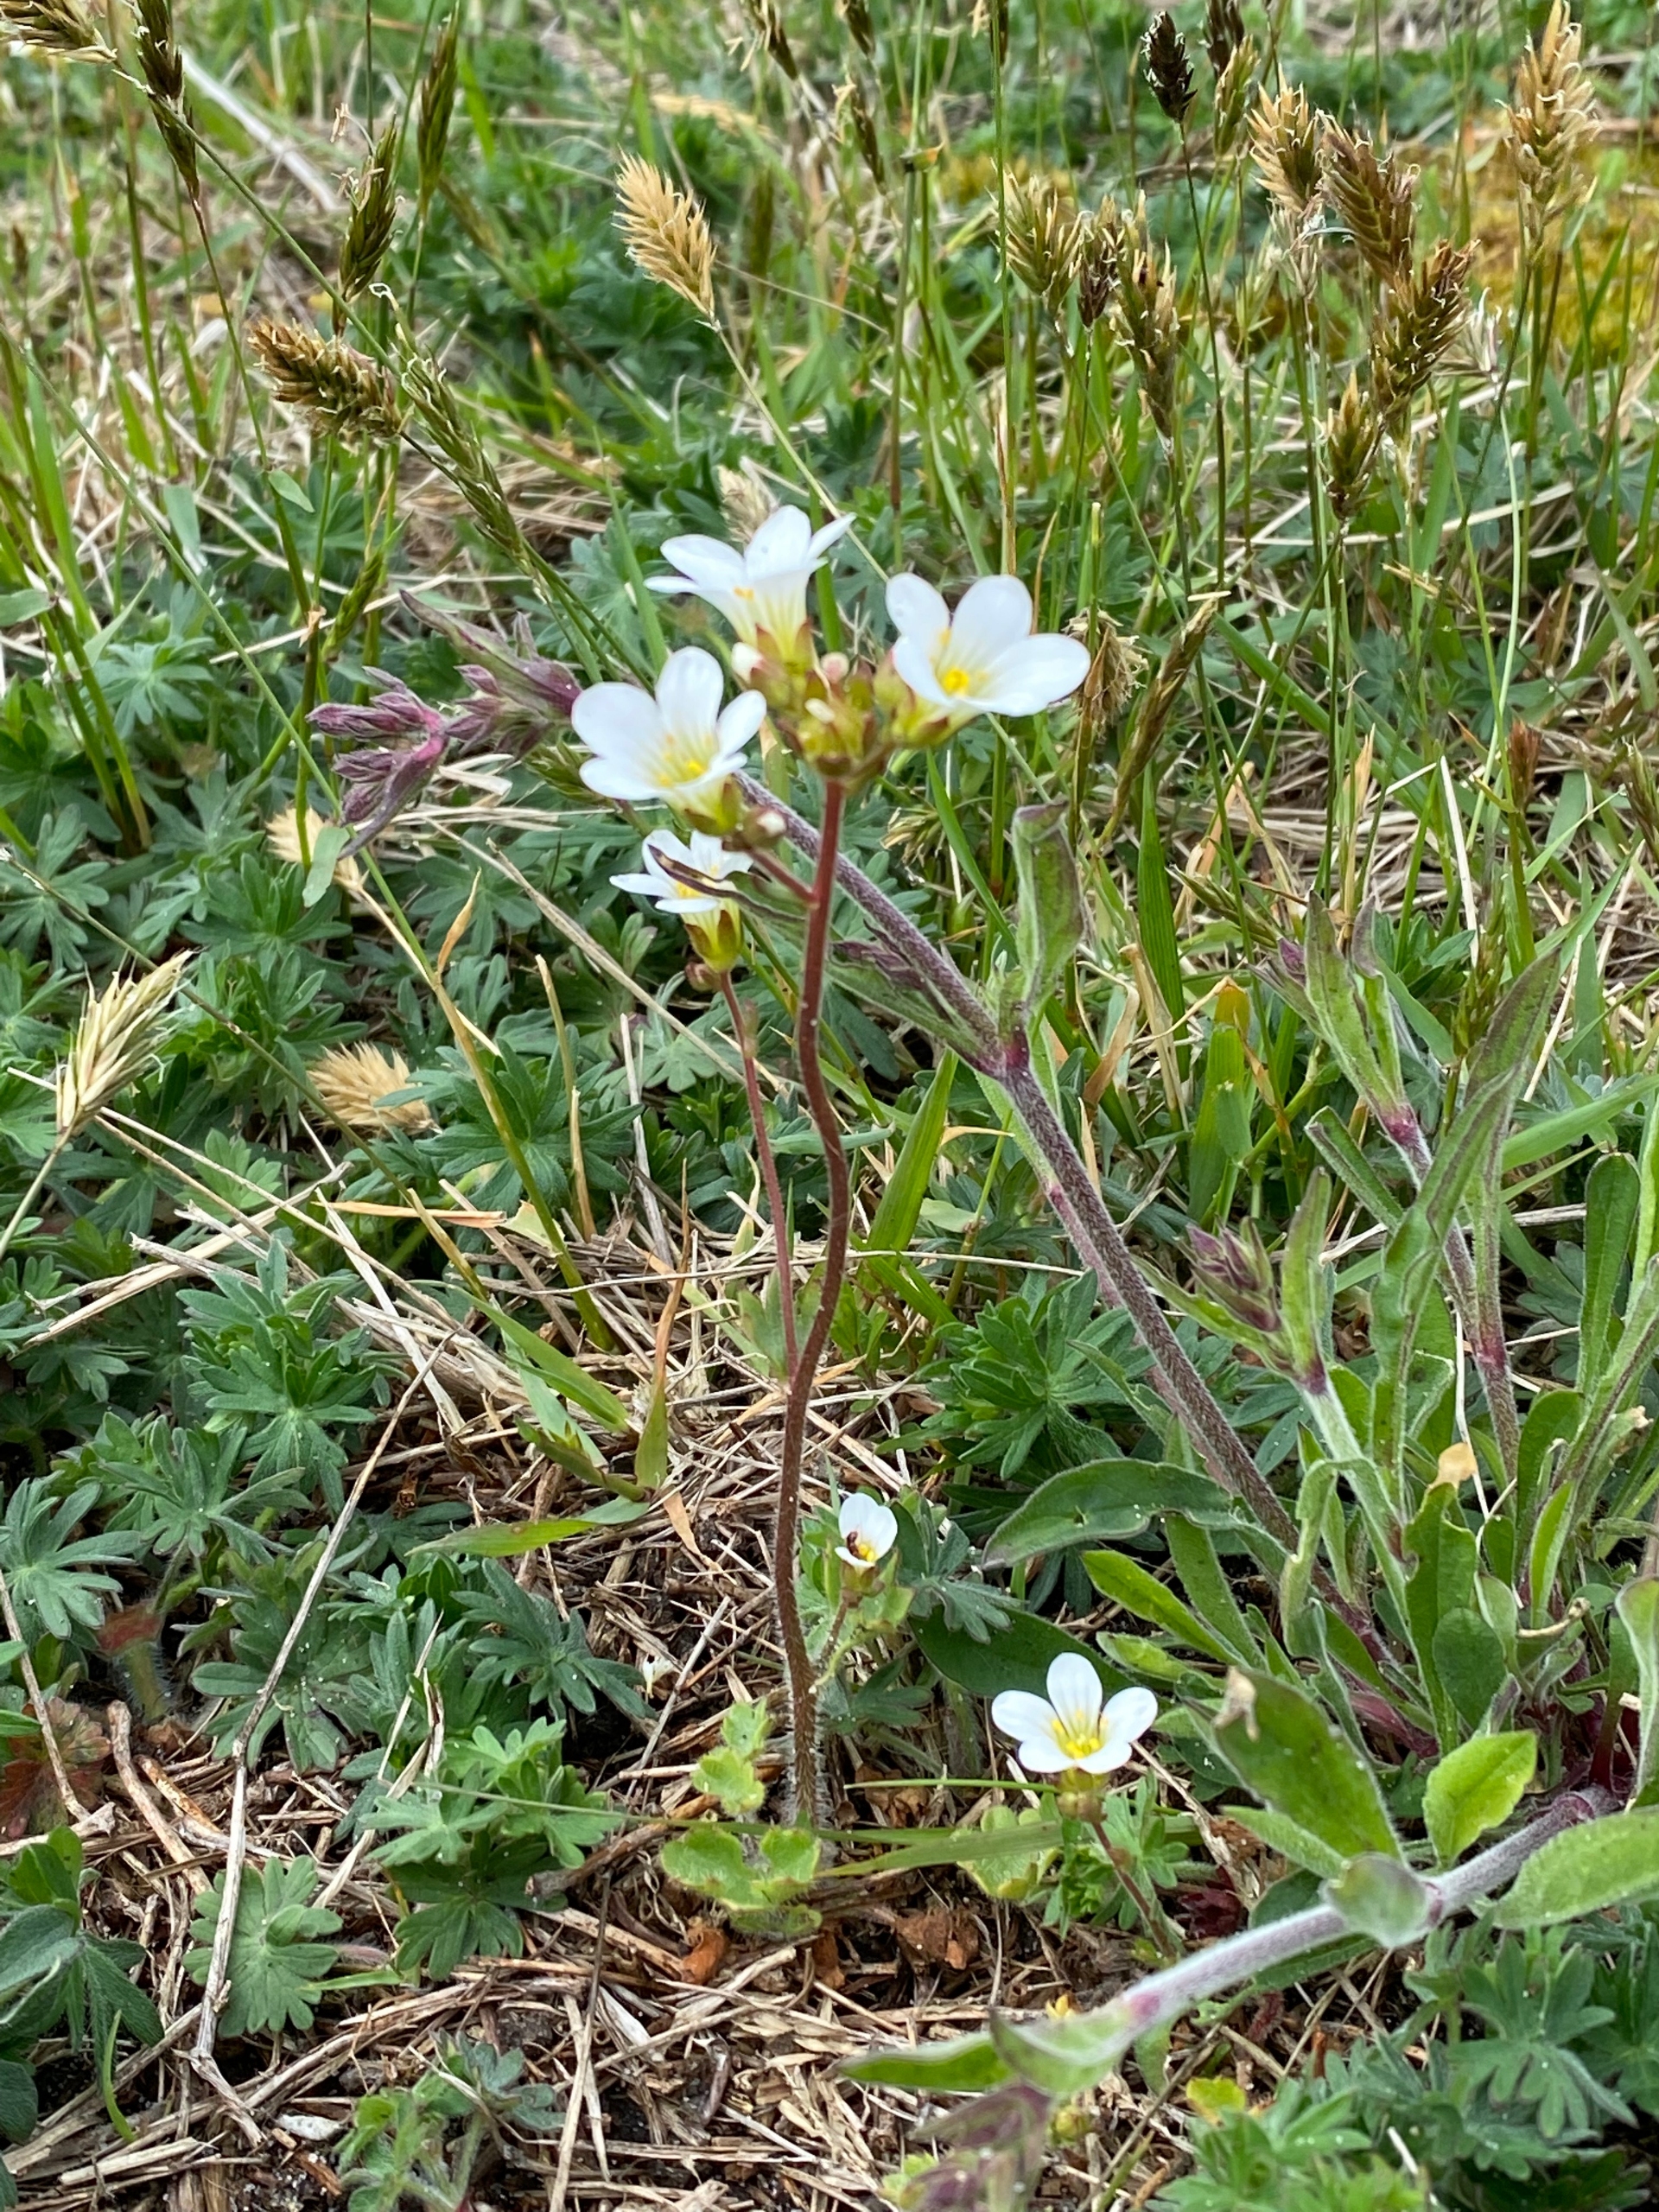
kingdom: Plantae
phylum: Tracheophyta
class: Magnoliopsida
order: Saxifragales
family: Saxifragaceae
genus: Saxifraga
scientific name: Saxifraga granulata
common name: Kornet stenbræk
